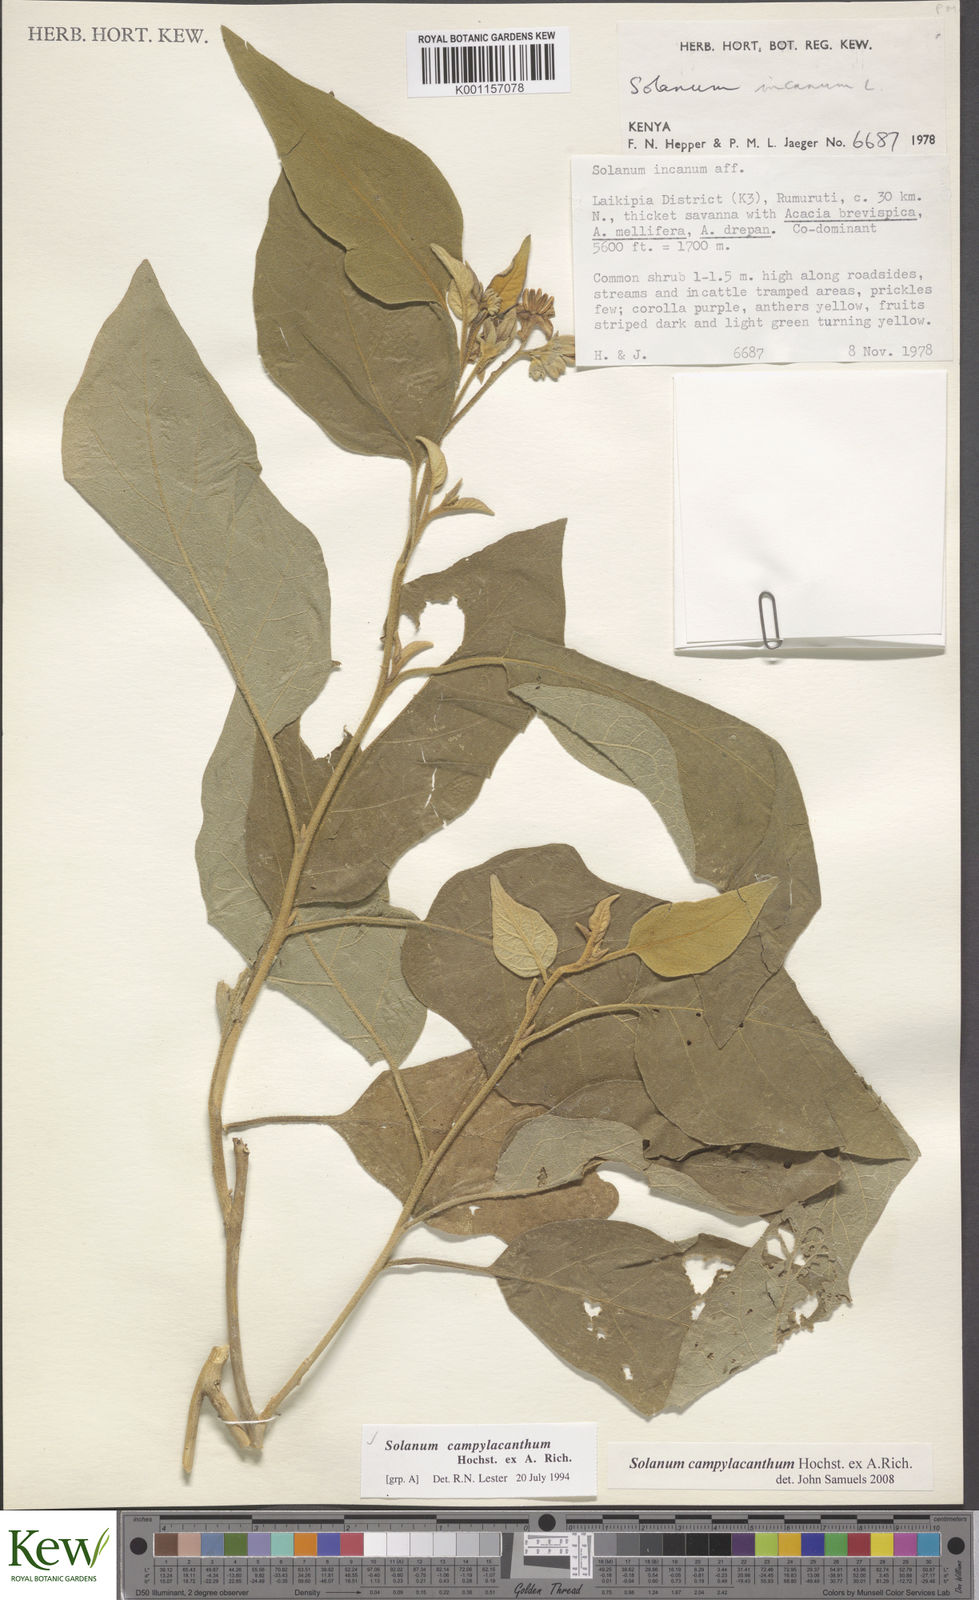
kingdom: Plantae
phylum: Tracheophyta
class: Magnoliopsida
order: Solanales
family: Solanaceae
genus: Solanum
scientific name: Solanum campylacanthum
